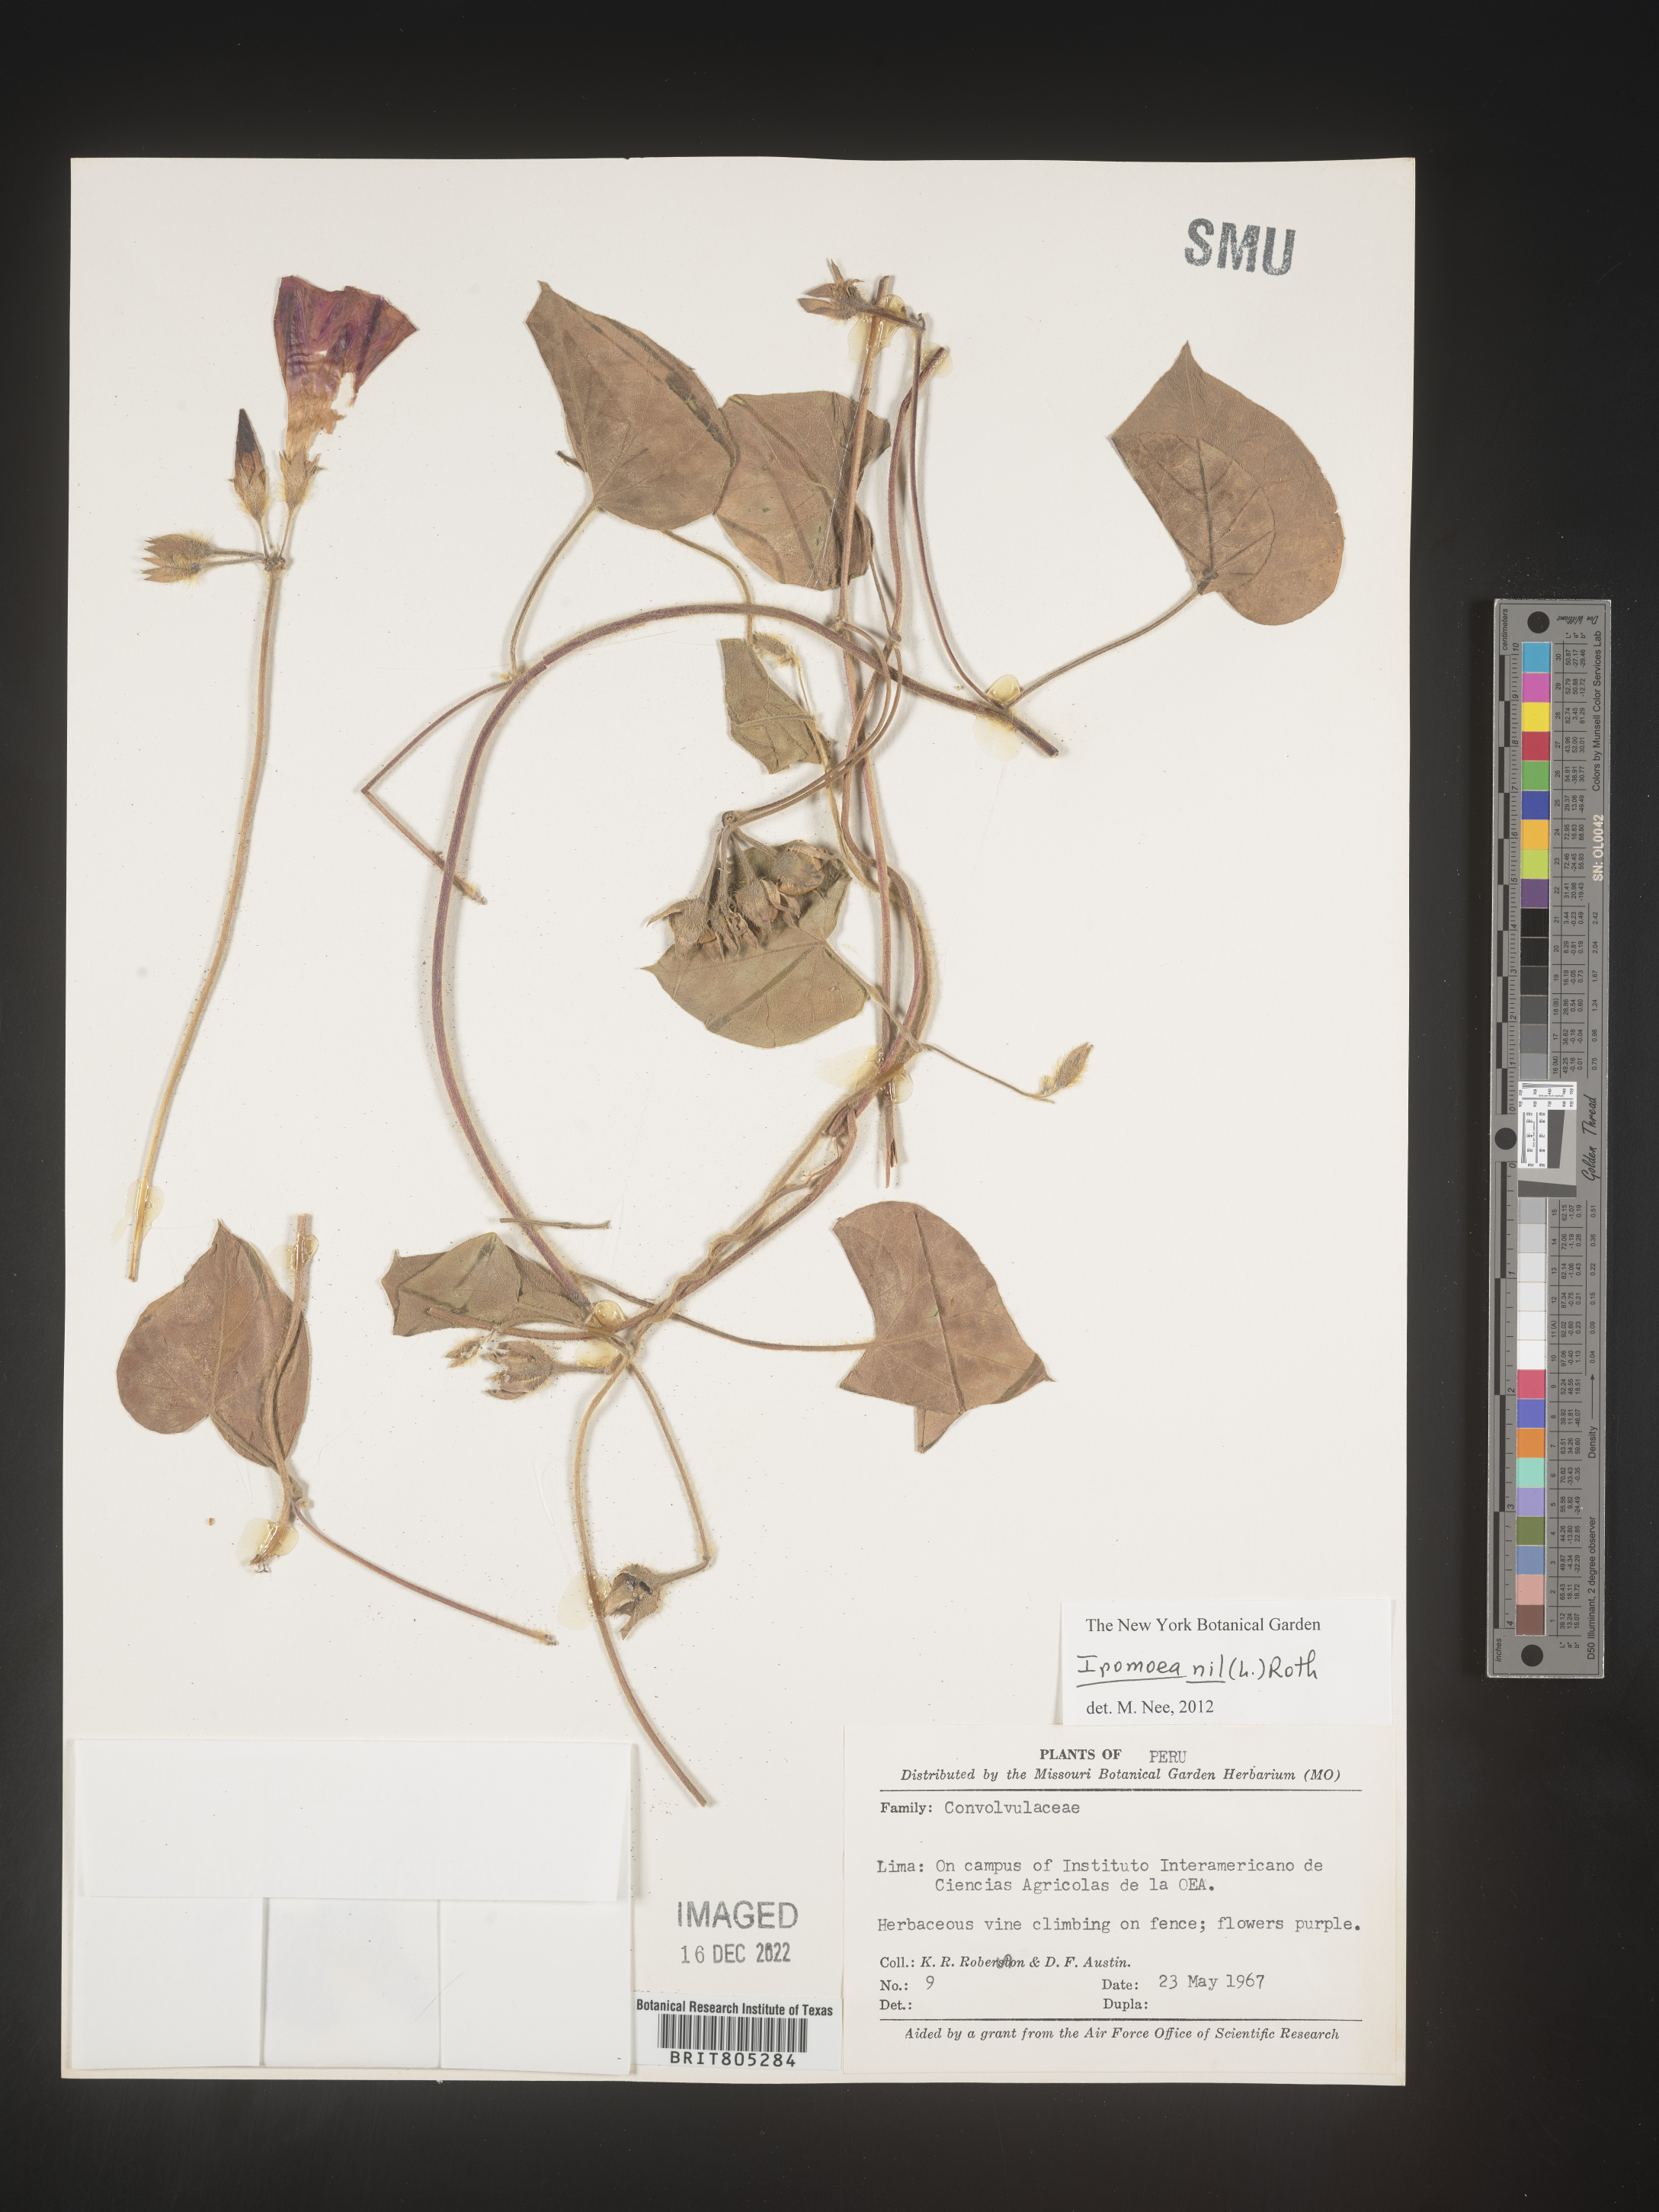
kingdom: Plantae
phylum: Tracheophyta
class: Magnoliopsida
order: Solanales
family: Convolvulaceae
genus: Ipomoea
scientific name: Ipomoea
